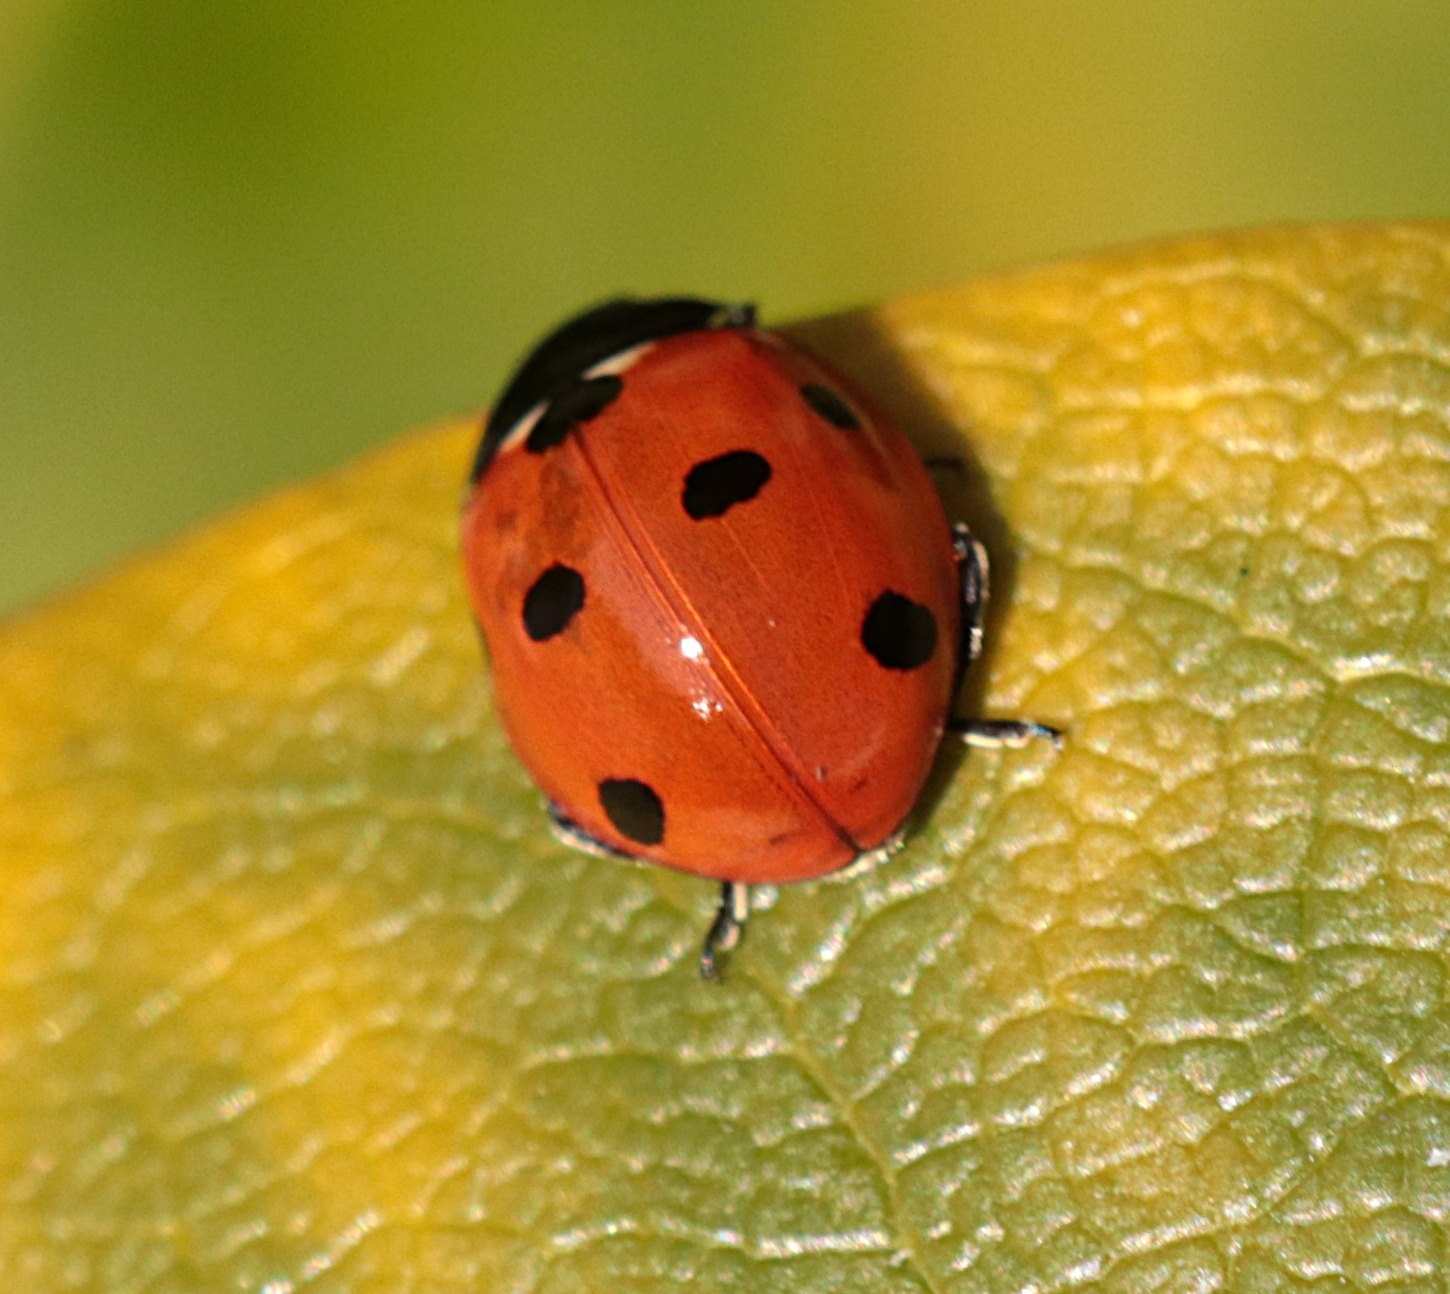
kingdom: Animalia
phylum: Arthropoda
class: Insecta
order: Coleoptera
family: Coccinellidae
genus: Coccinella
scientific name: Coccinella septempunctata
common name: Syvplettet mariehøne
